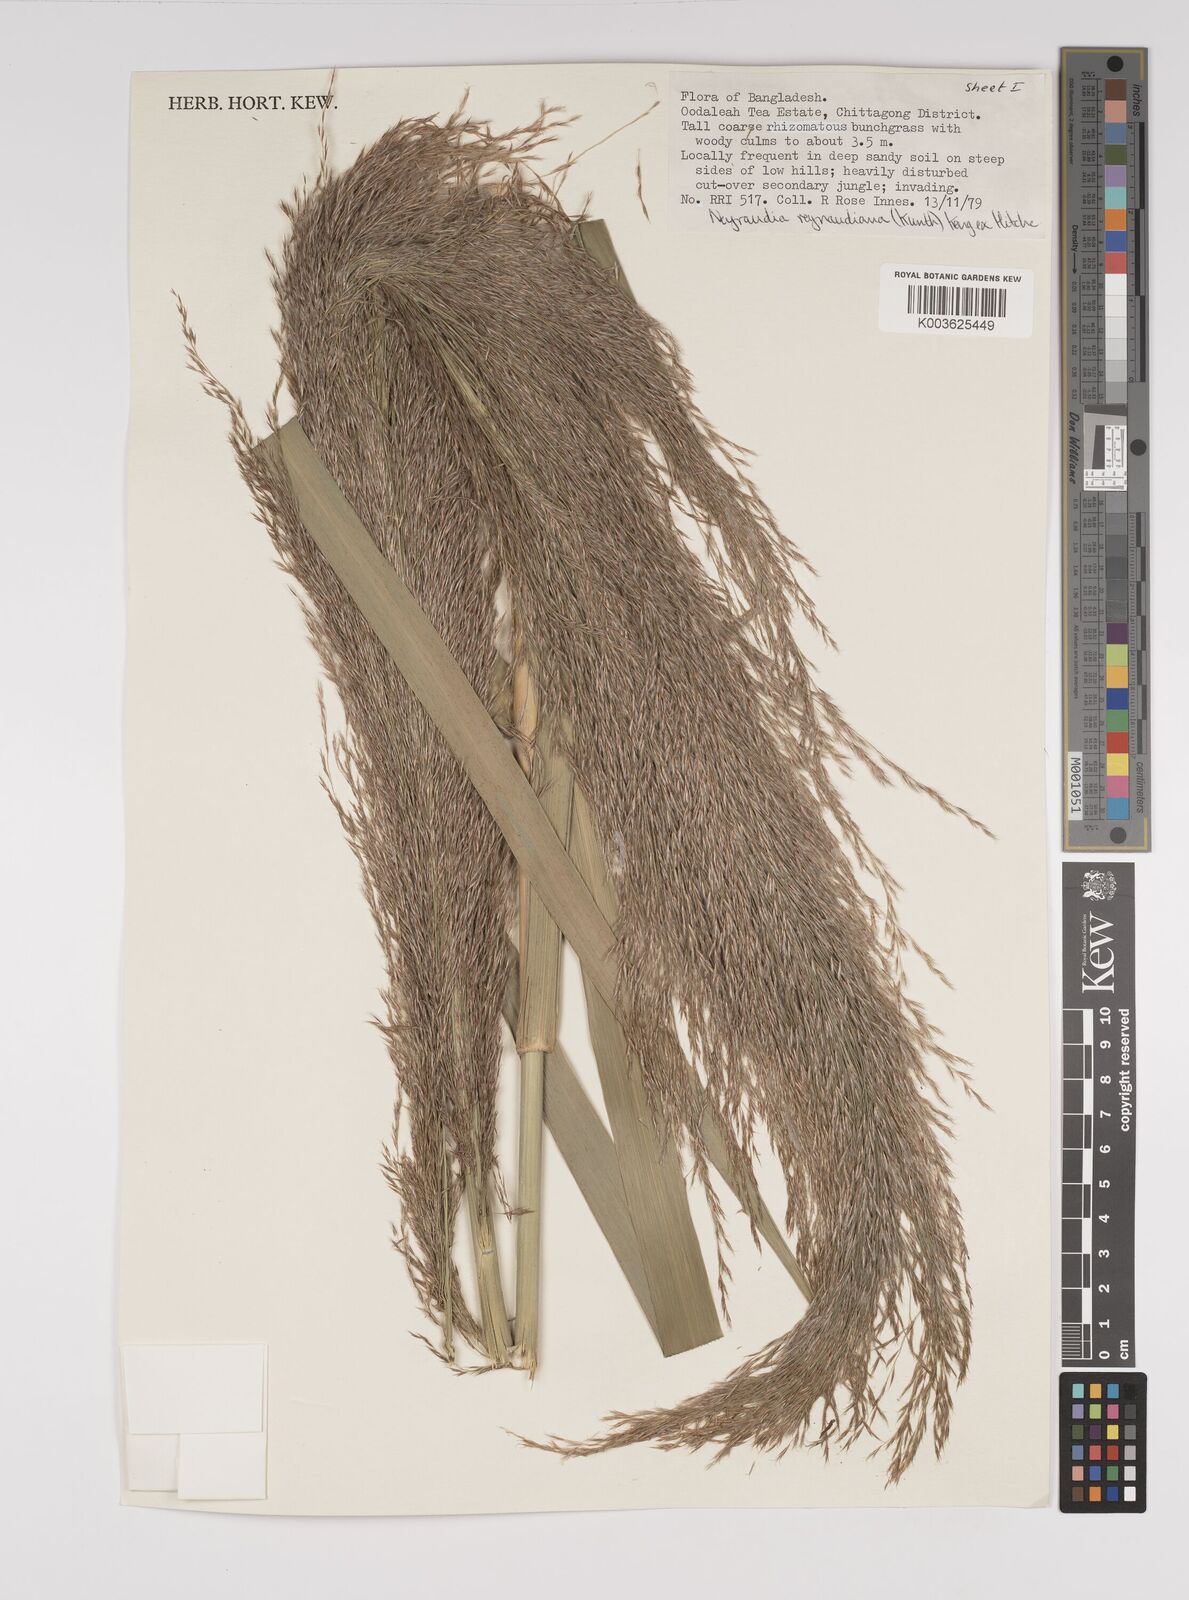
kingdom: Plantae
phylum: Tracheophyta
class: Liliopsida
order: Poales
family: Poaceae
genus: Neyraudia
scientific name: Neyraudia reynaudiana
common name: Silkreed
